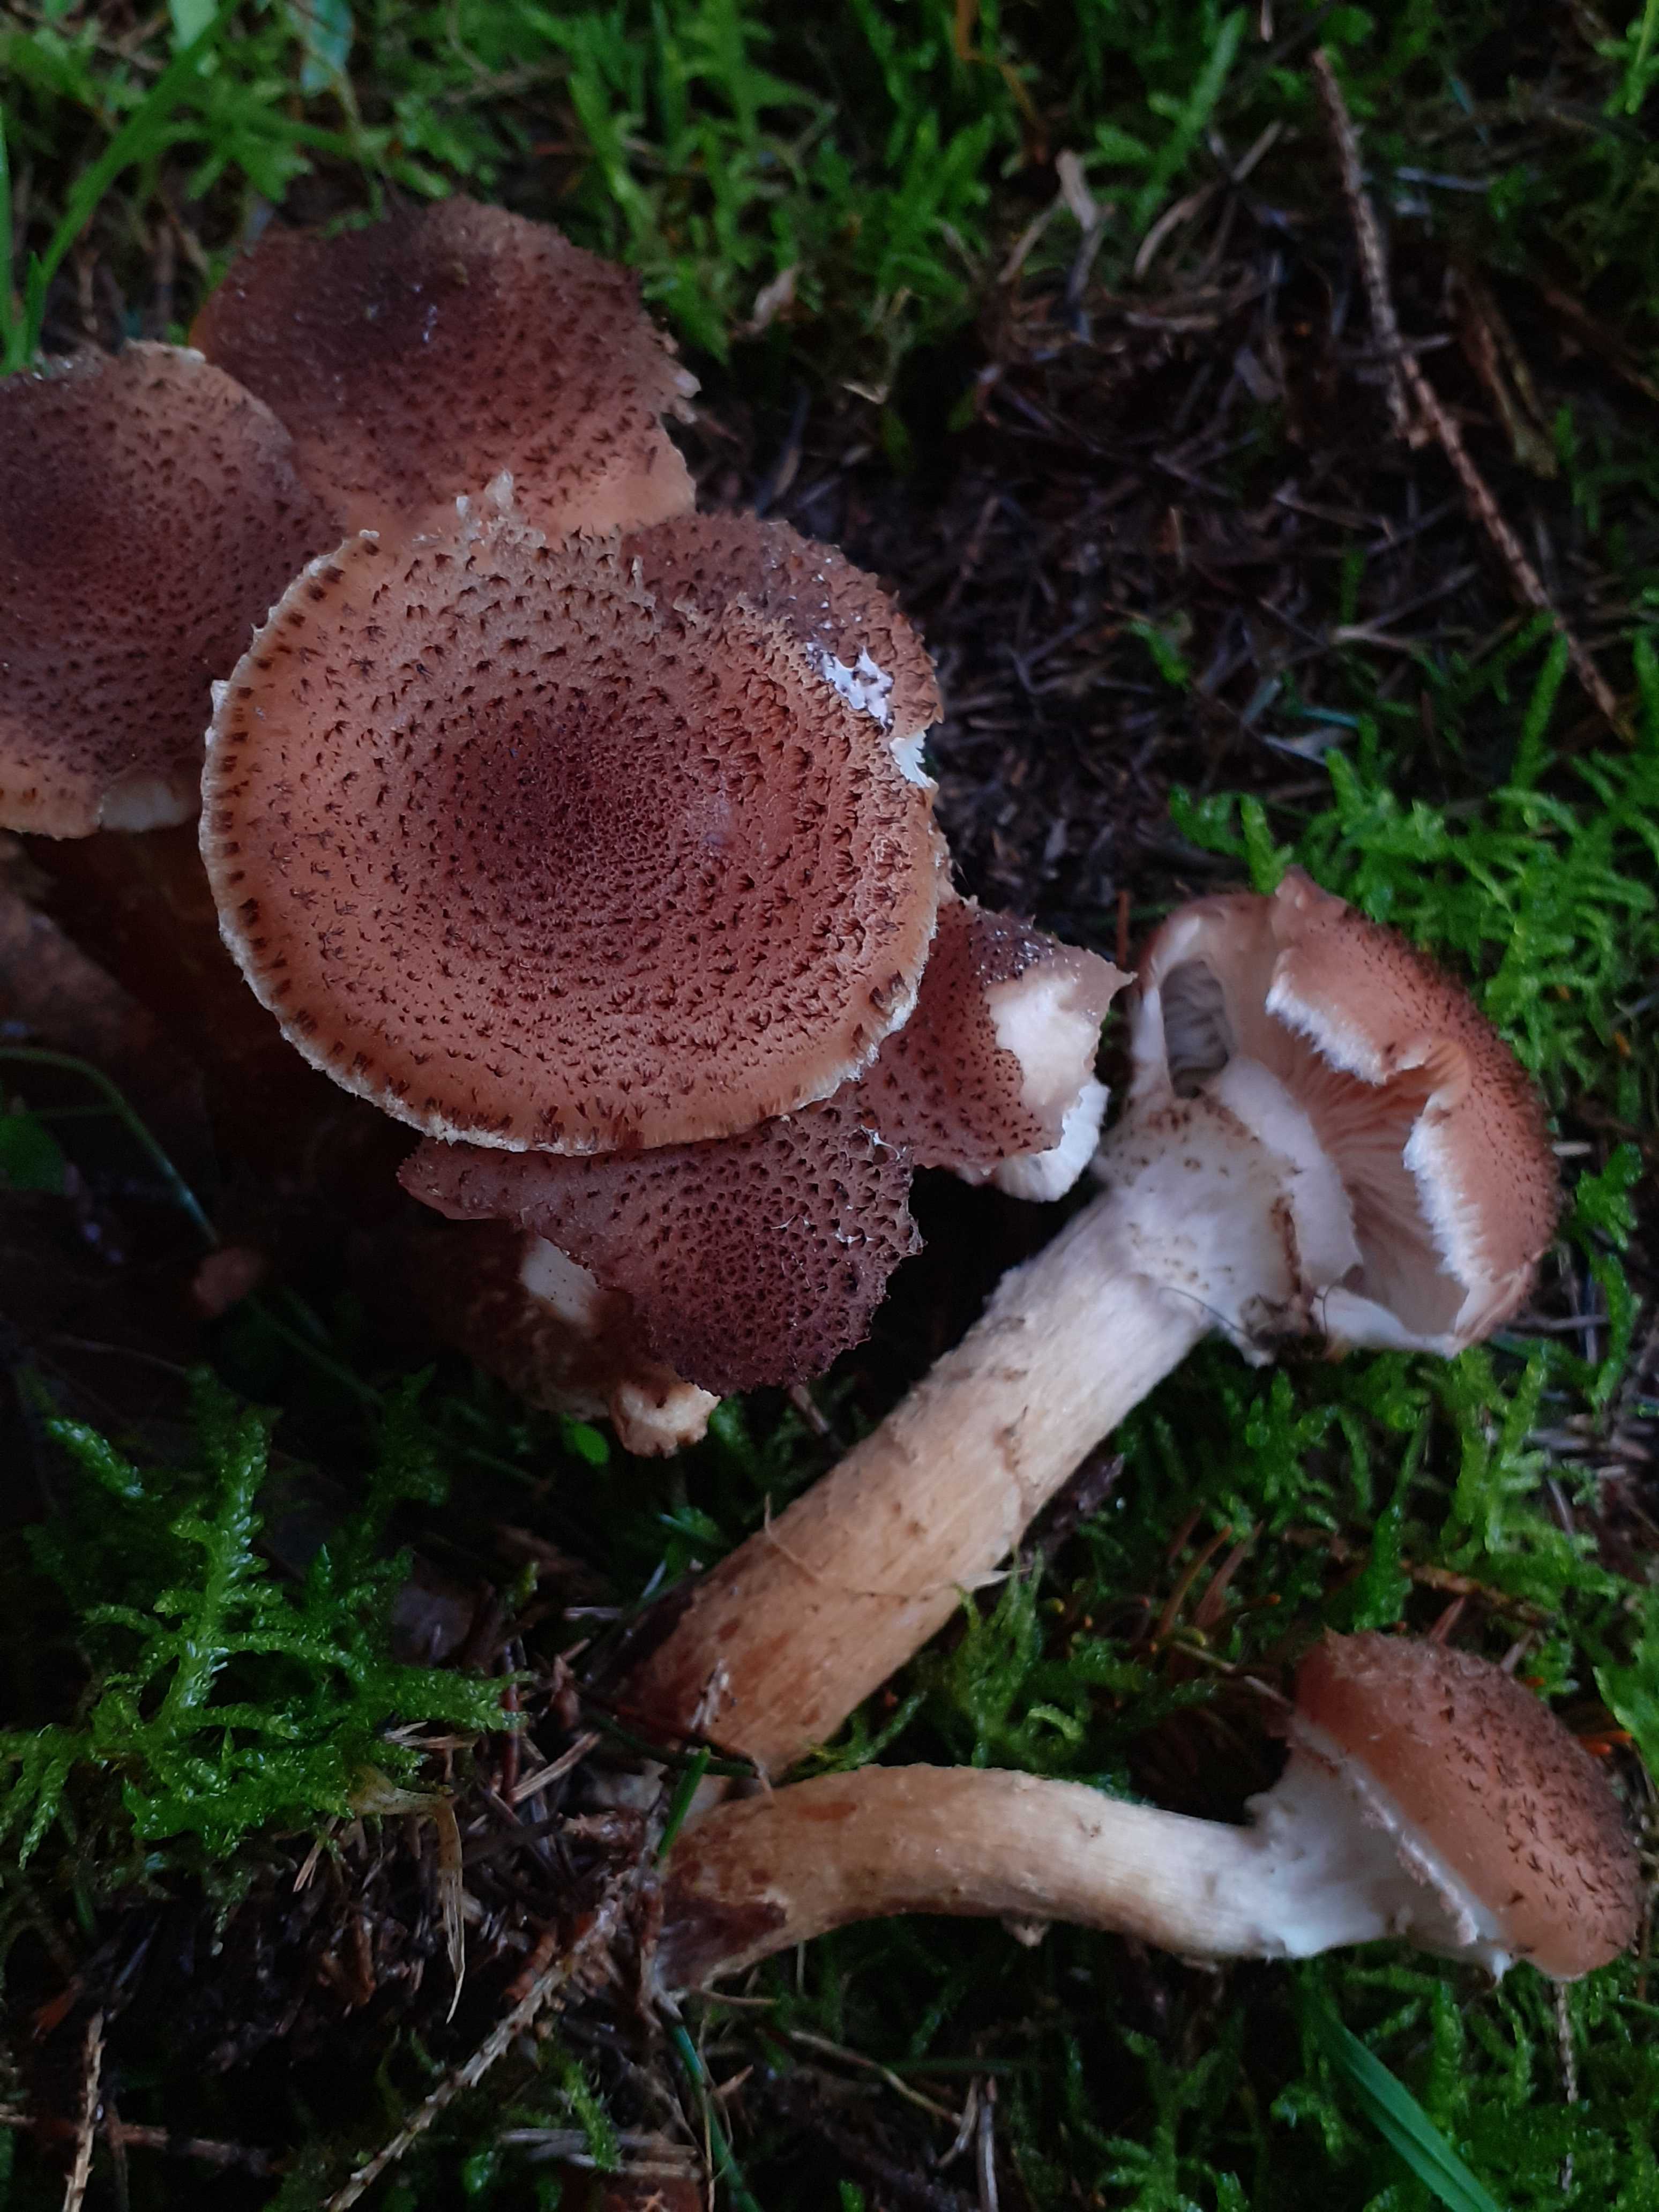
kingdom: Fungi
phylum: Basidiomycota
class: Agaricomycetes
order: Agaricales
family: Physalacriaceae
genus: Armillaria
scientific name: Armillaria ostoyae
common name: mørk honningsvamp
